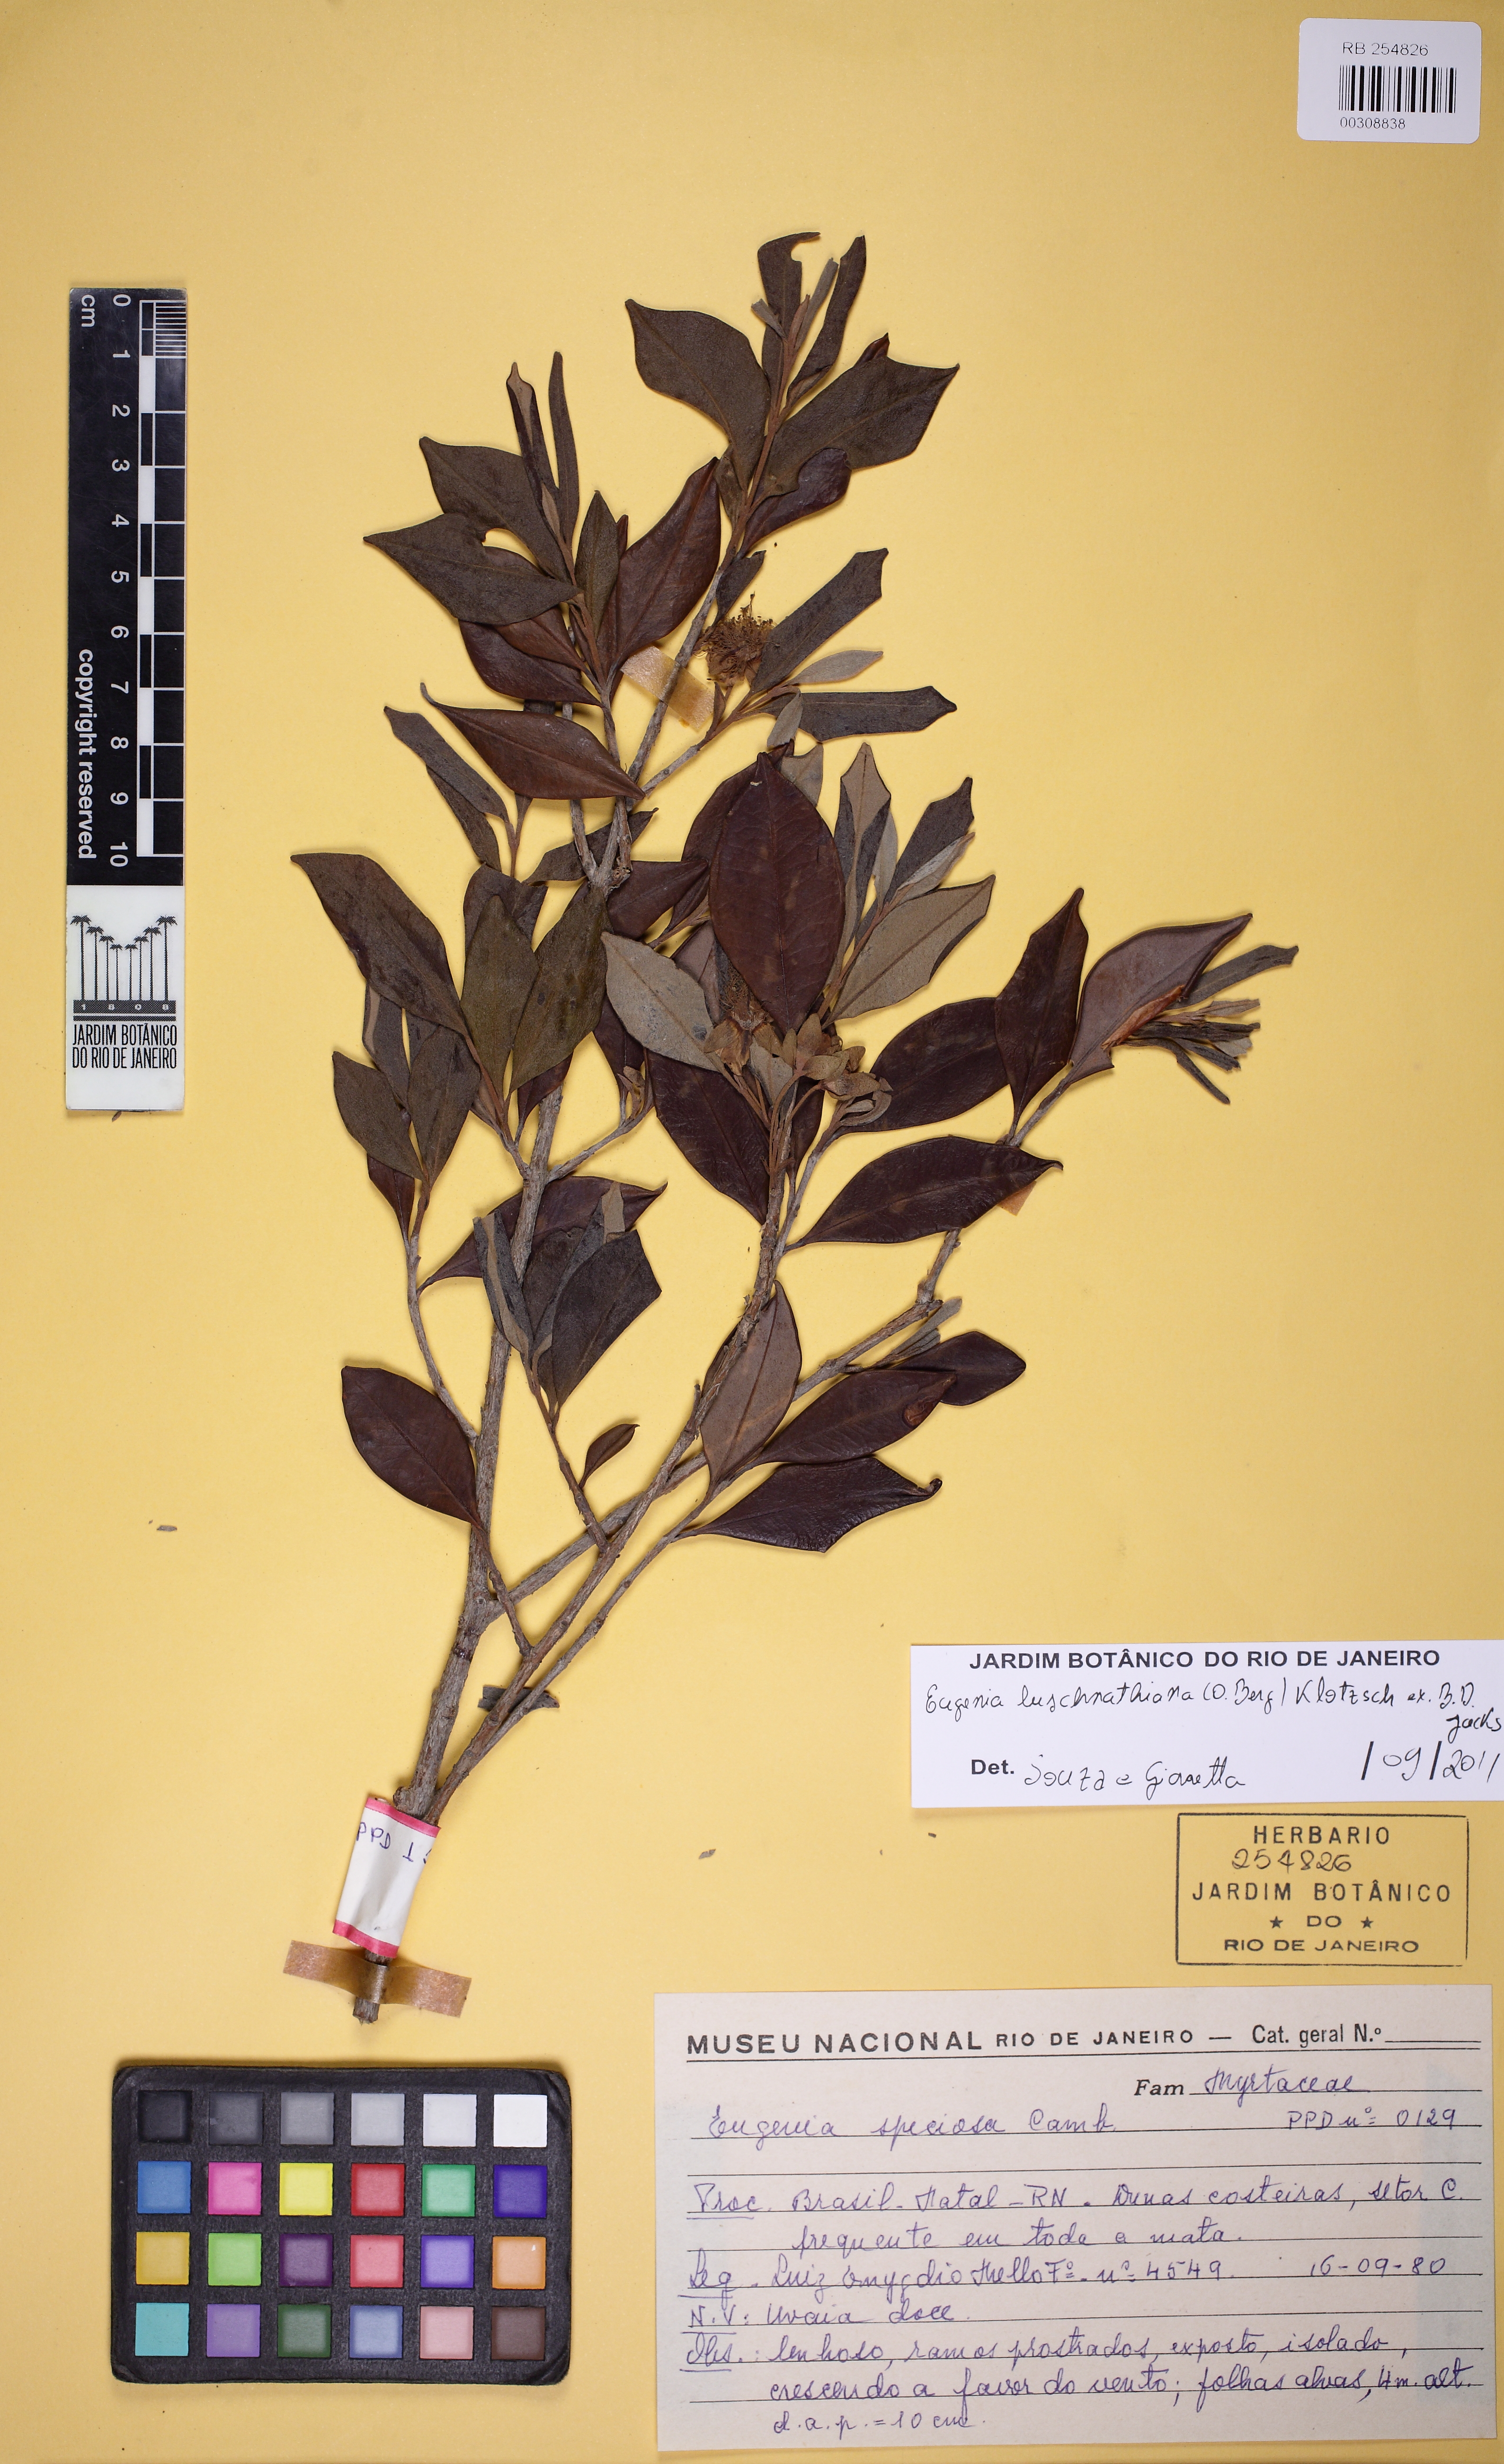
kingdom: Plantae
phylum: Tracheophyta
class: Magnoliopsida
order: Myrtales
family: Myrtaceae
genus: Eugenia
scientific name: Eugenia luschnathiana
